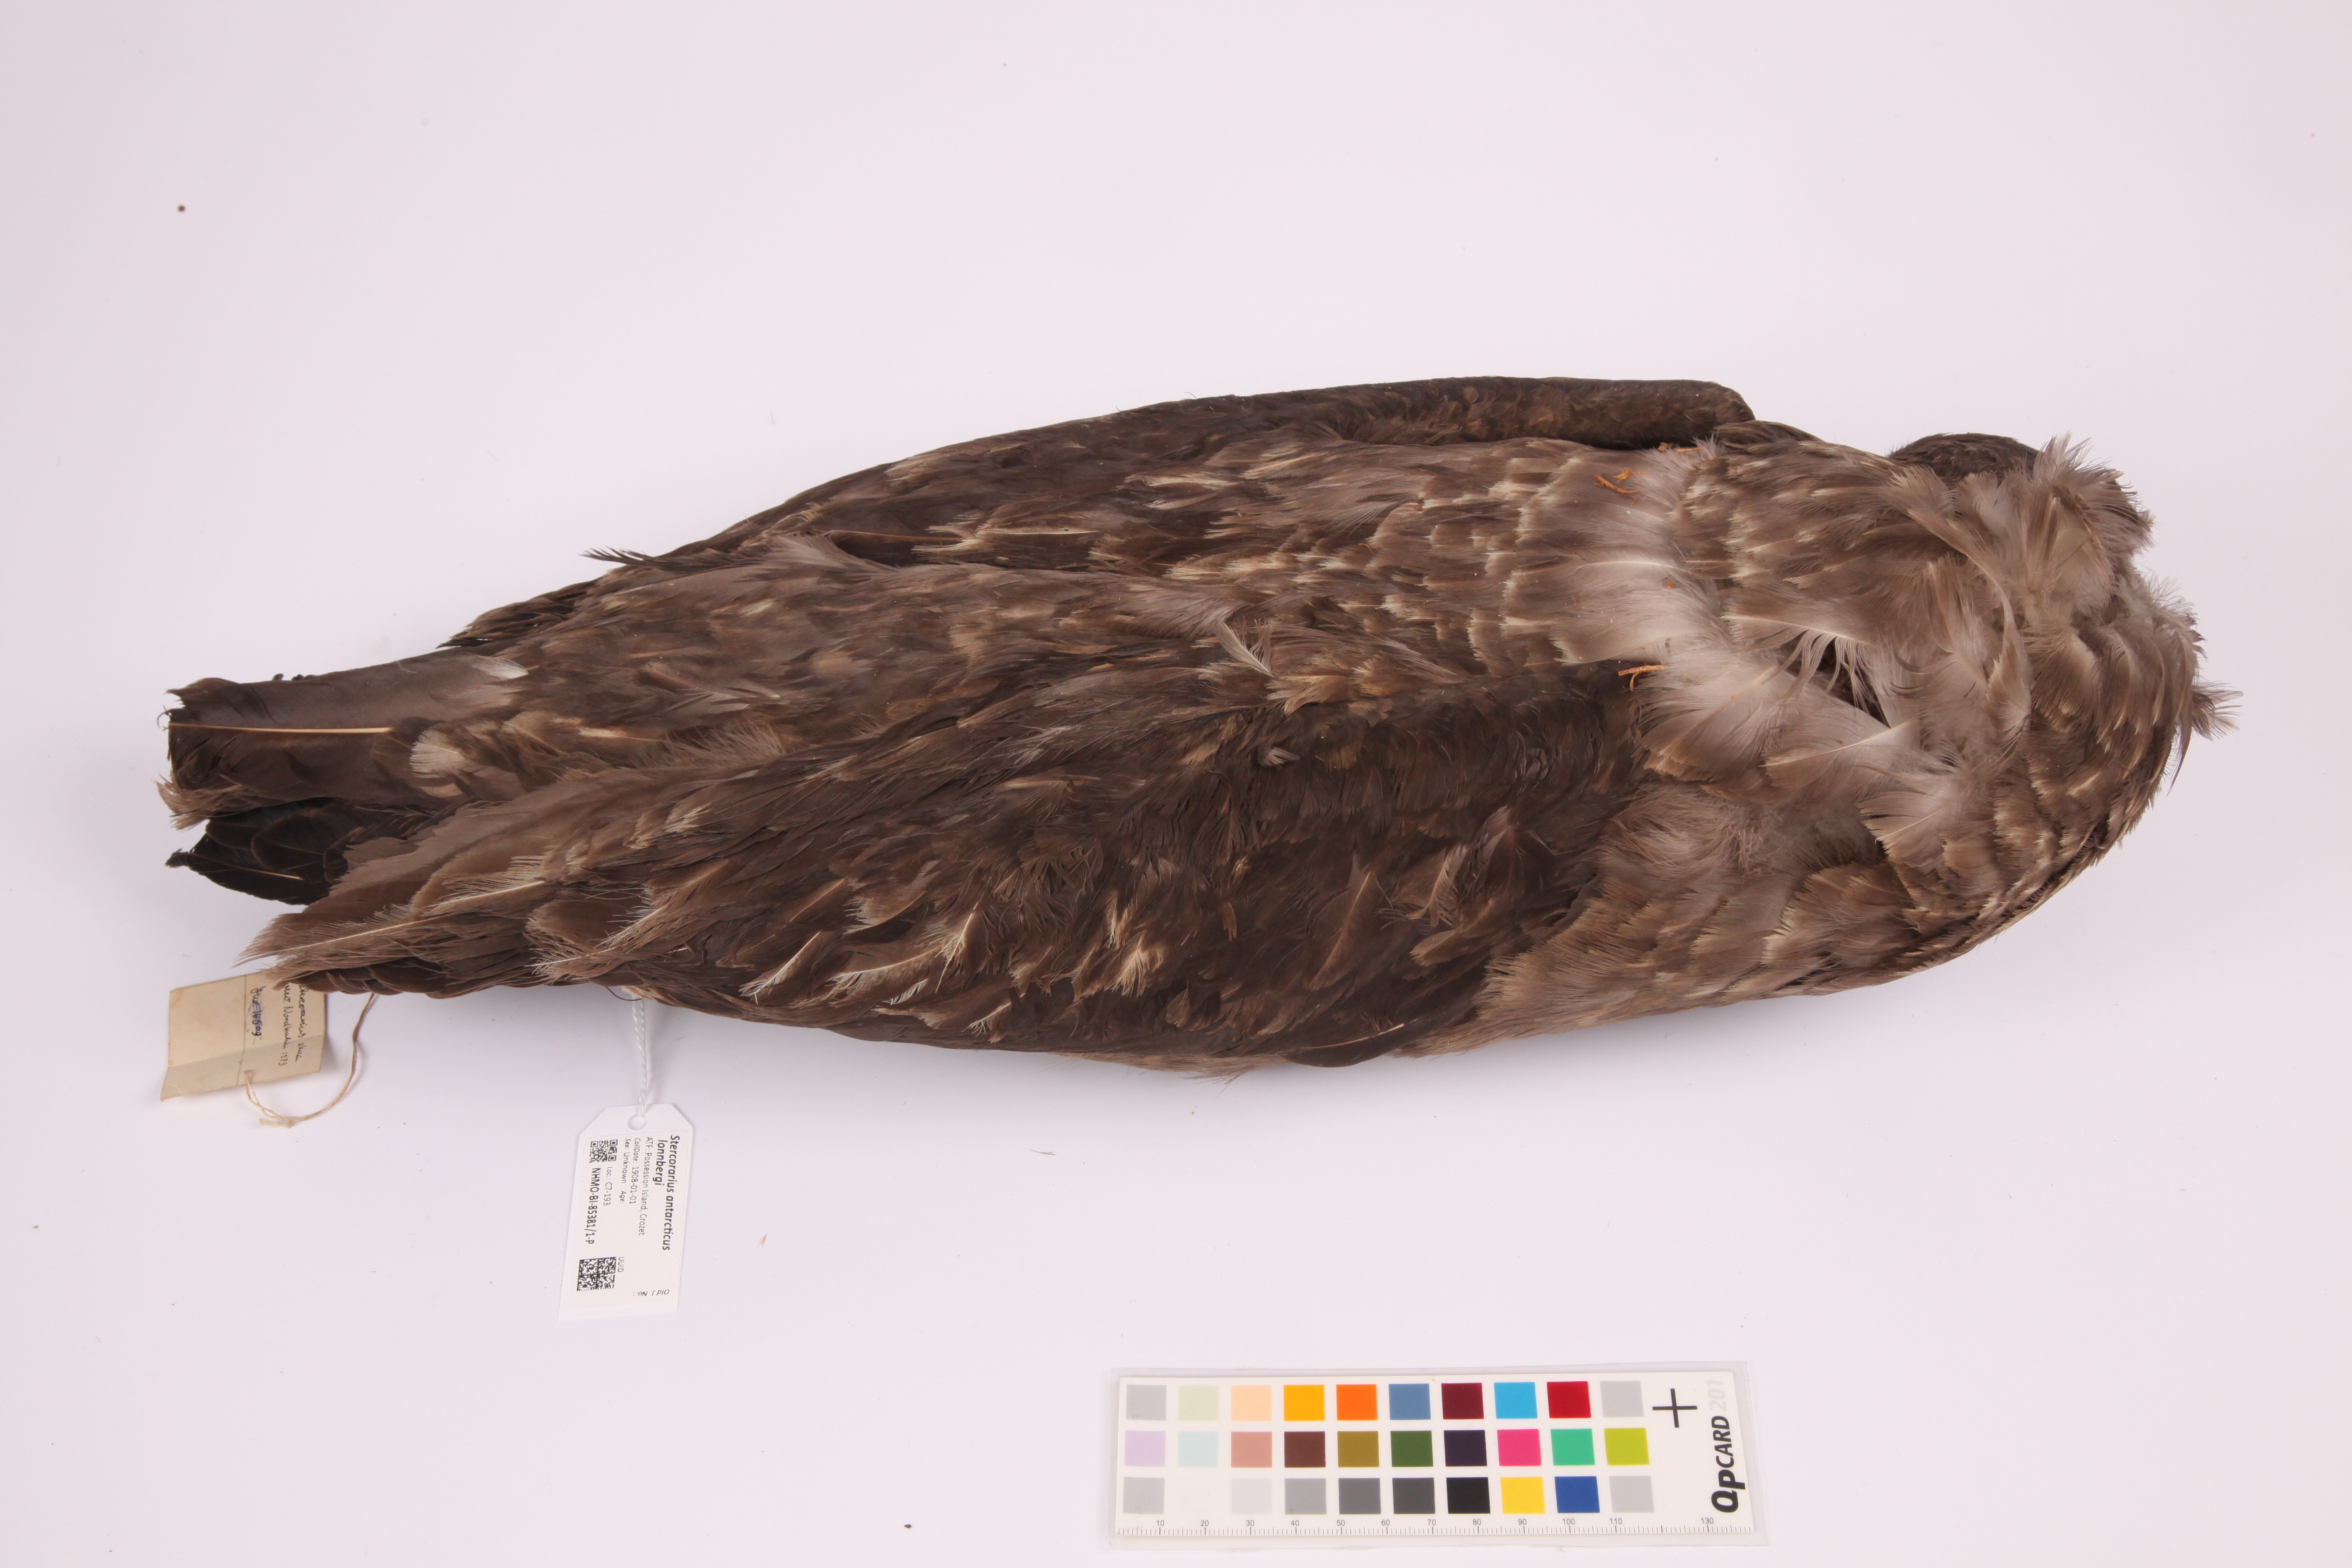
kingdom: Animalia
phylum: Chordata
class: Aves
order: Charadriiformes
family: Stercorariidae
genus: Stercorarius
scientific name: Stercorarius antarcticus
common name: Brown skua
